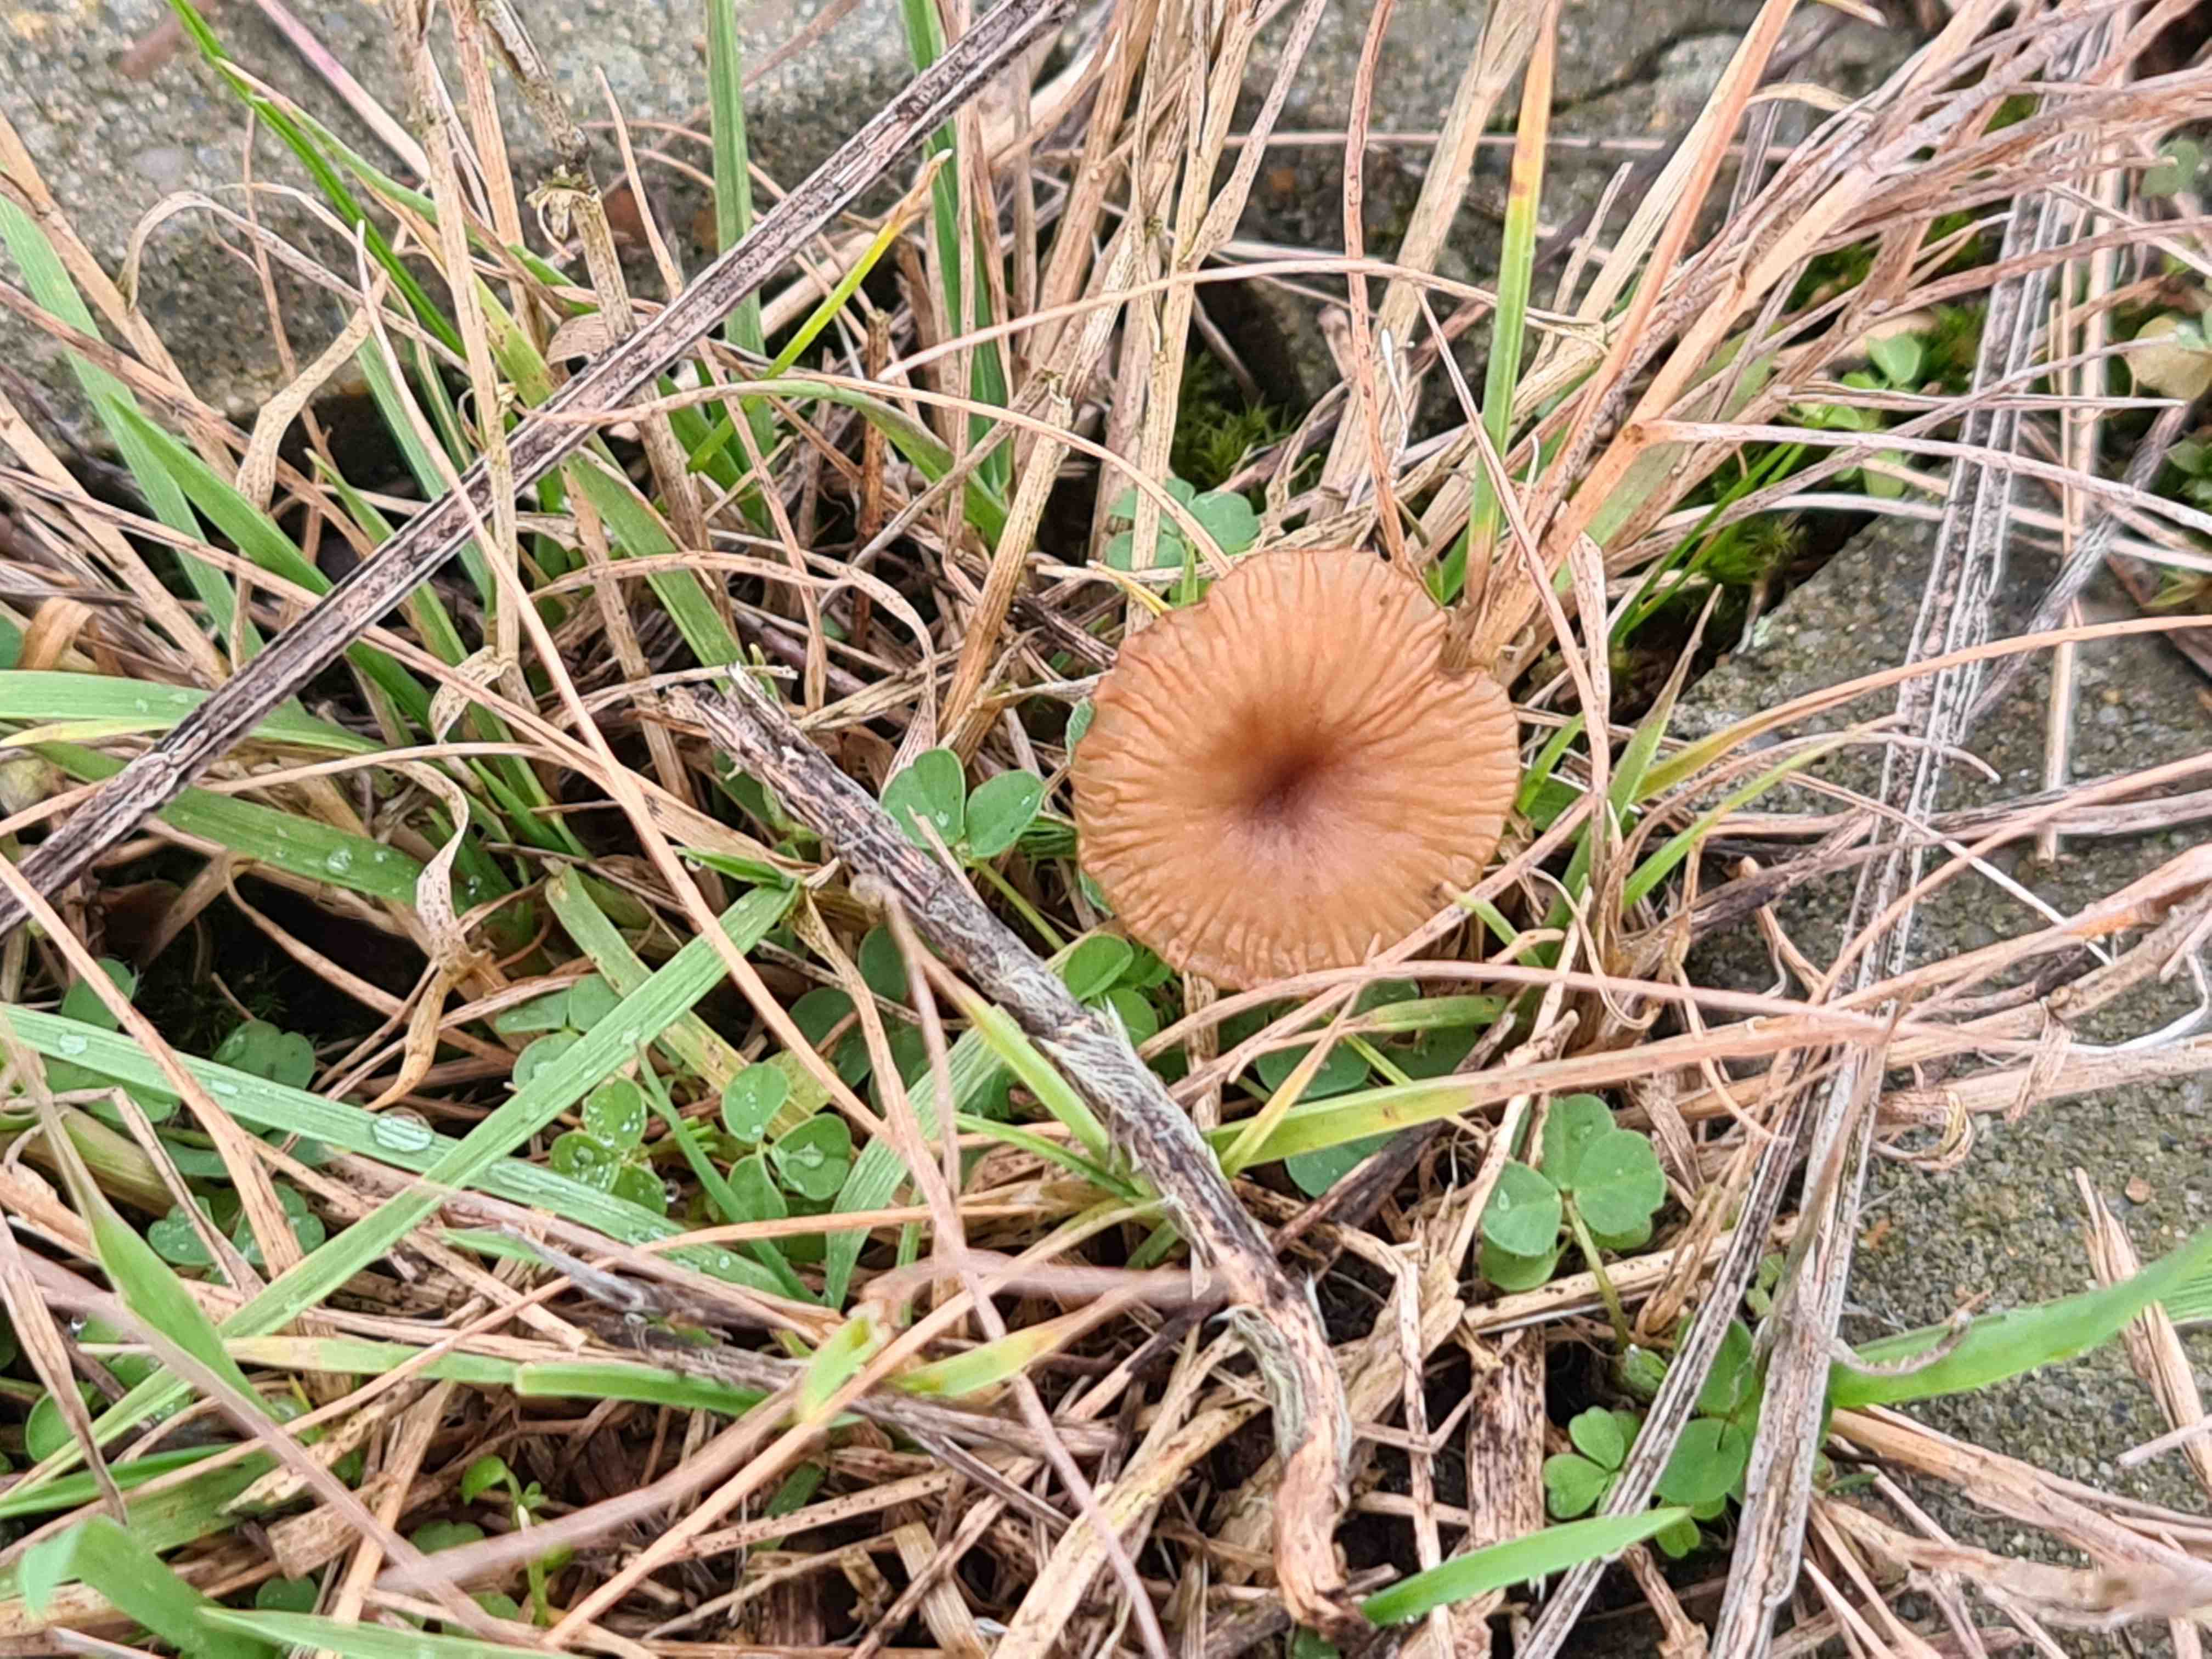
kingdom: Fungi
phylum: Basidiomycota
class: Agaricomycetes
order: Agaricales
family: Tricholomataceae
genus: Omphalina
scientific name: Omphalina pyxidata
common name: rødbrun navlehat
